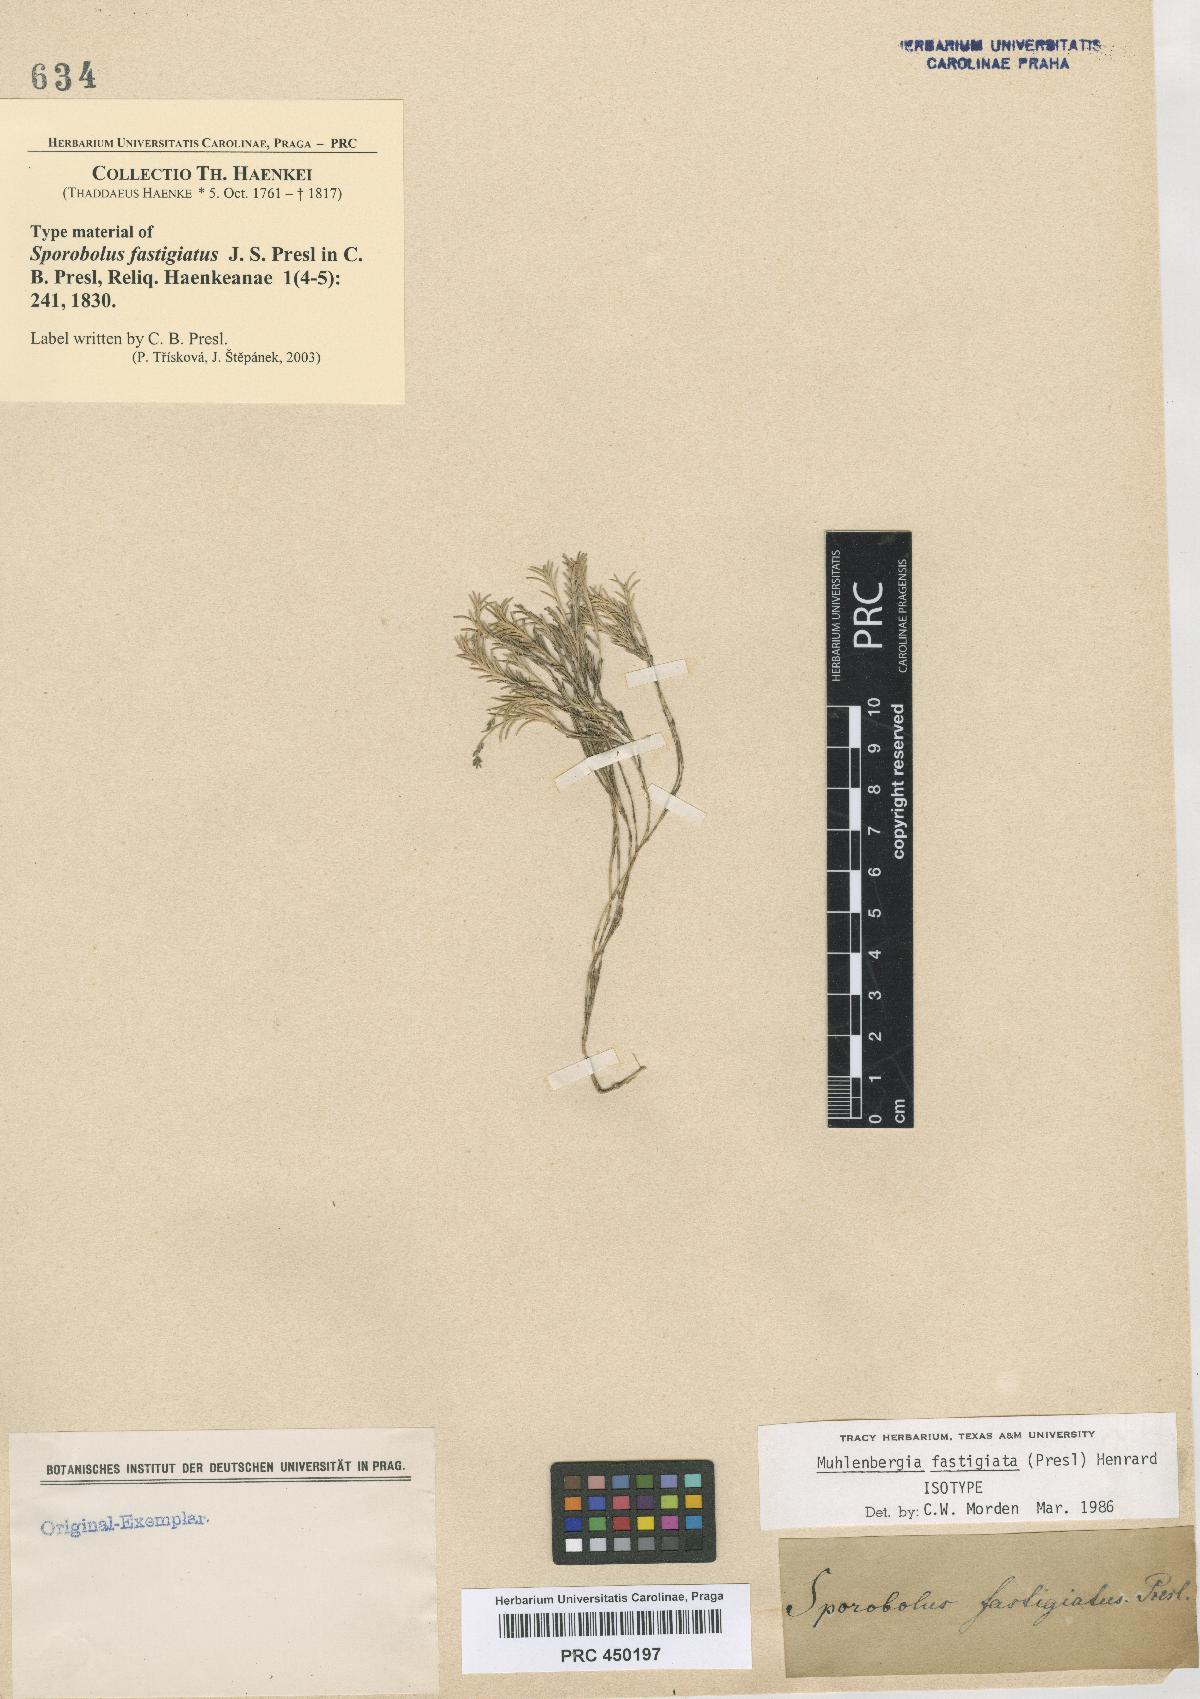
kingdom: Plantae
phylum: Tracheophyta
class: Liliopsida
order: Poales
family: Poaceae
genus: Muhlenbergia
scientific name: Muhlenbergia fastigiata
